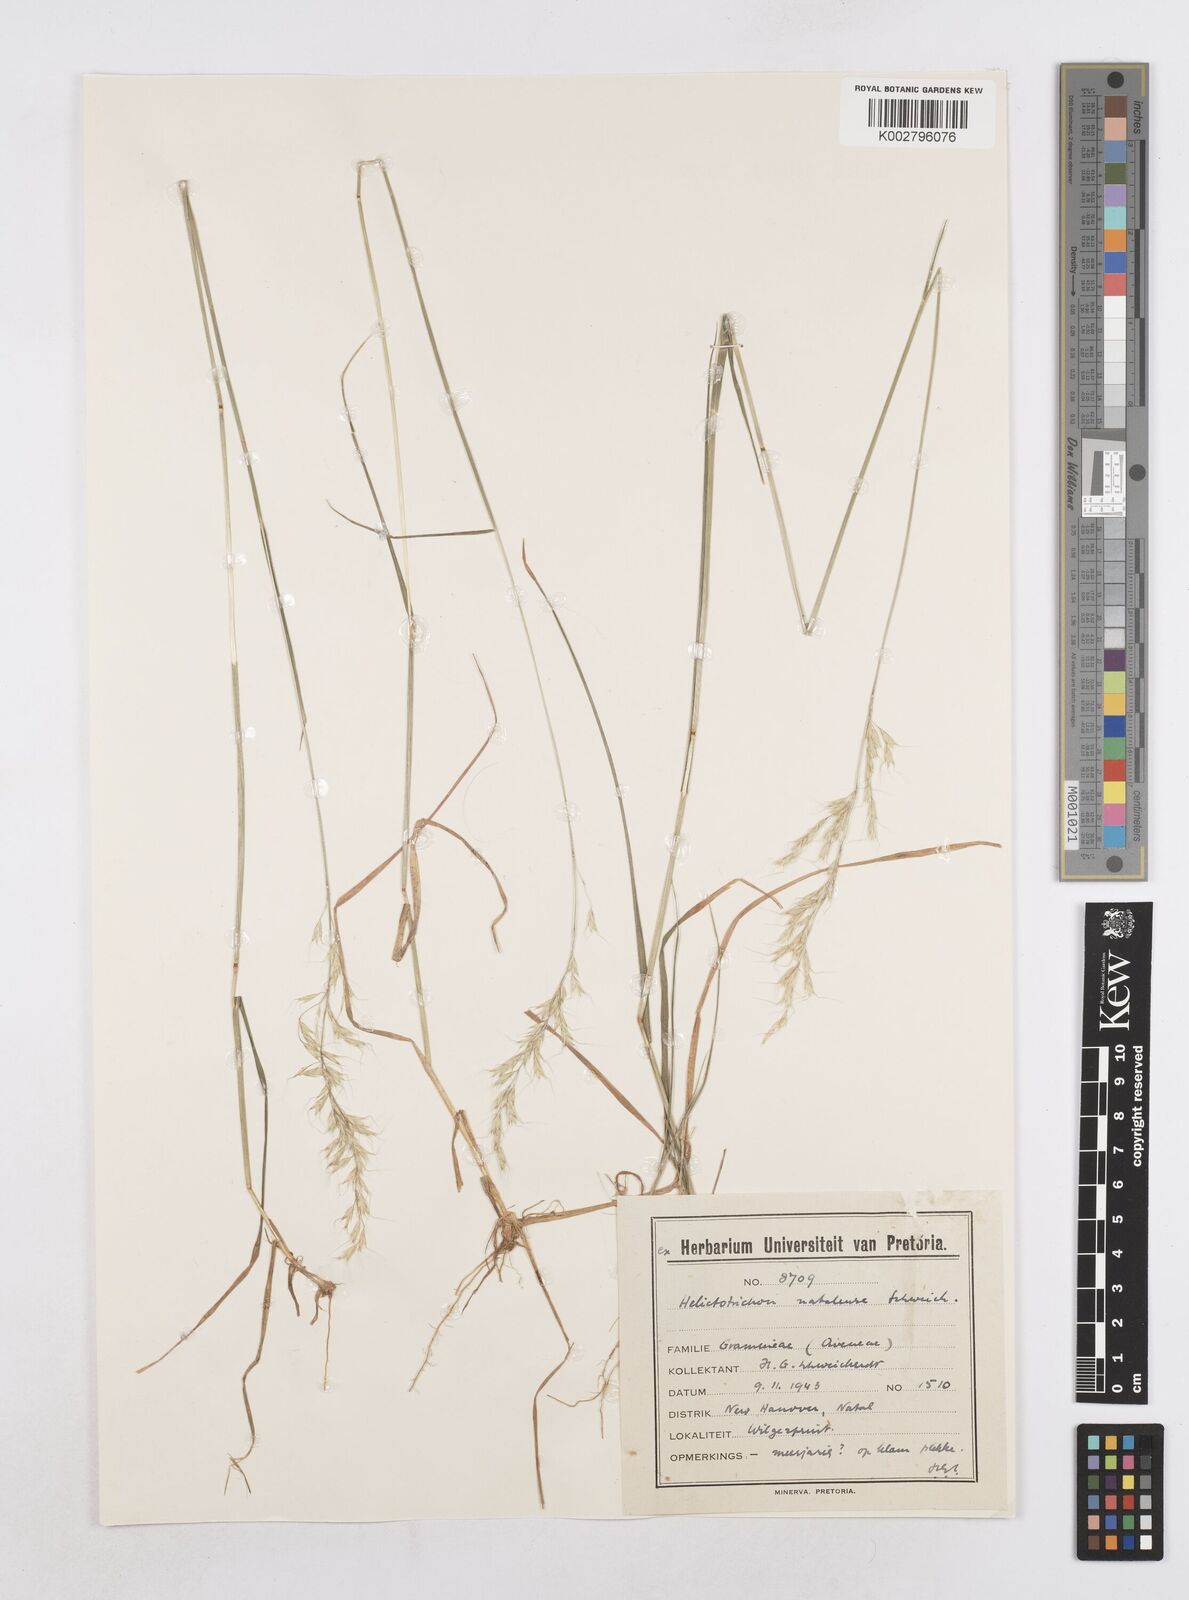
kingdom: Plantae
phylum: Tracheophyta
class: Liliopsida
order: Poales
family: Poaceae
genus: Trisetopsis
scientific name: Trisetopsis natalensis
